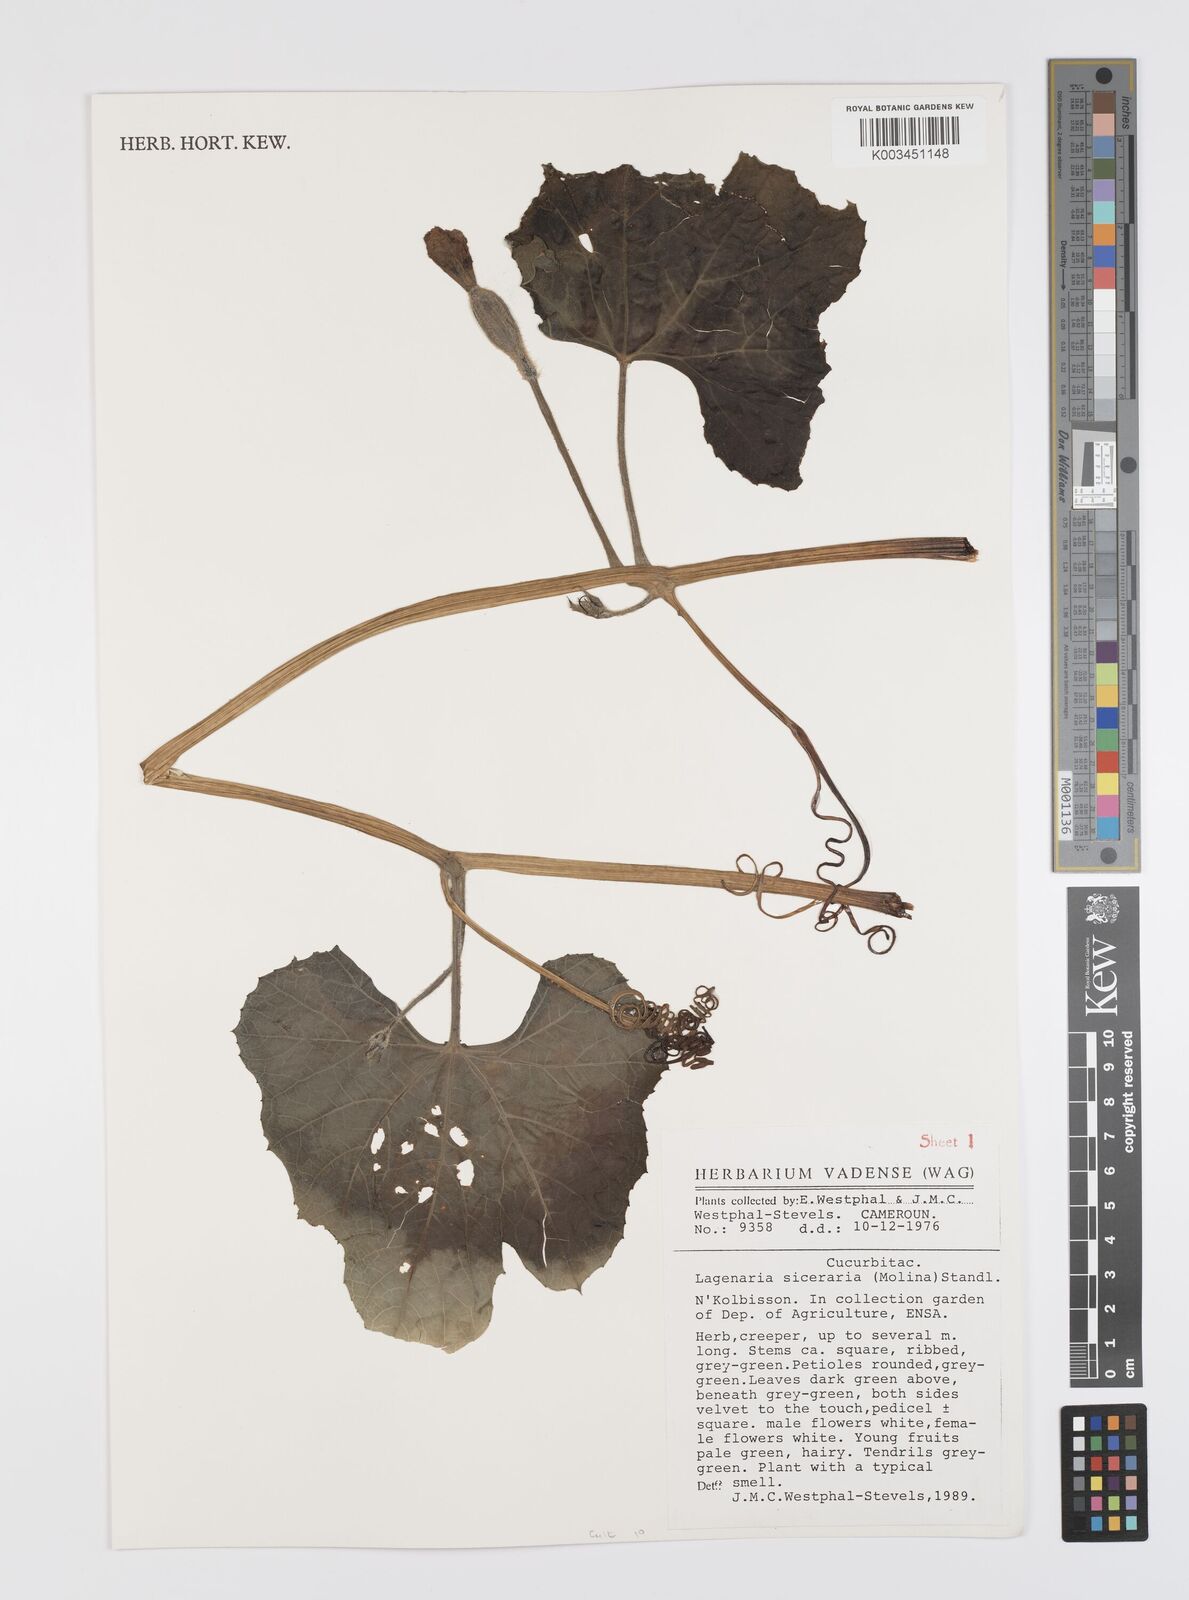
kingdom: Plantae
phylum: Tracheophyta
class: Magnoliopsida
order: Cucurbitales
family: Cucurbitaceae
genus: Lagenaria
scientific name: Lagenaria siceraria
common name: Bottle gourd
